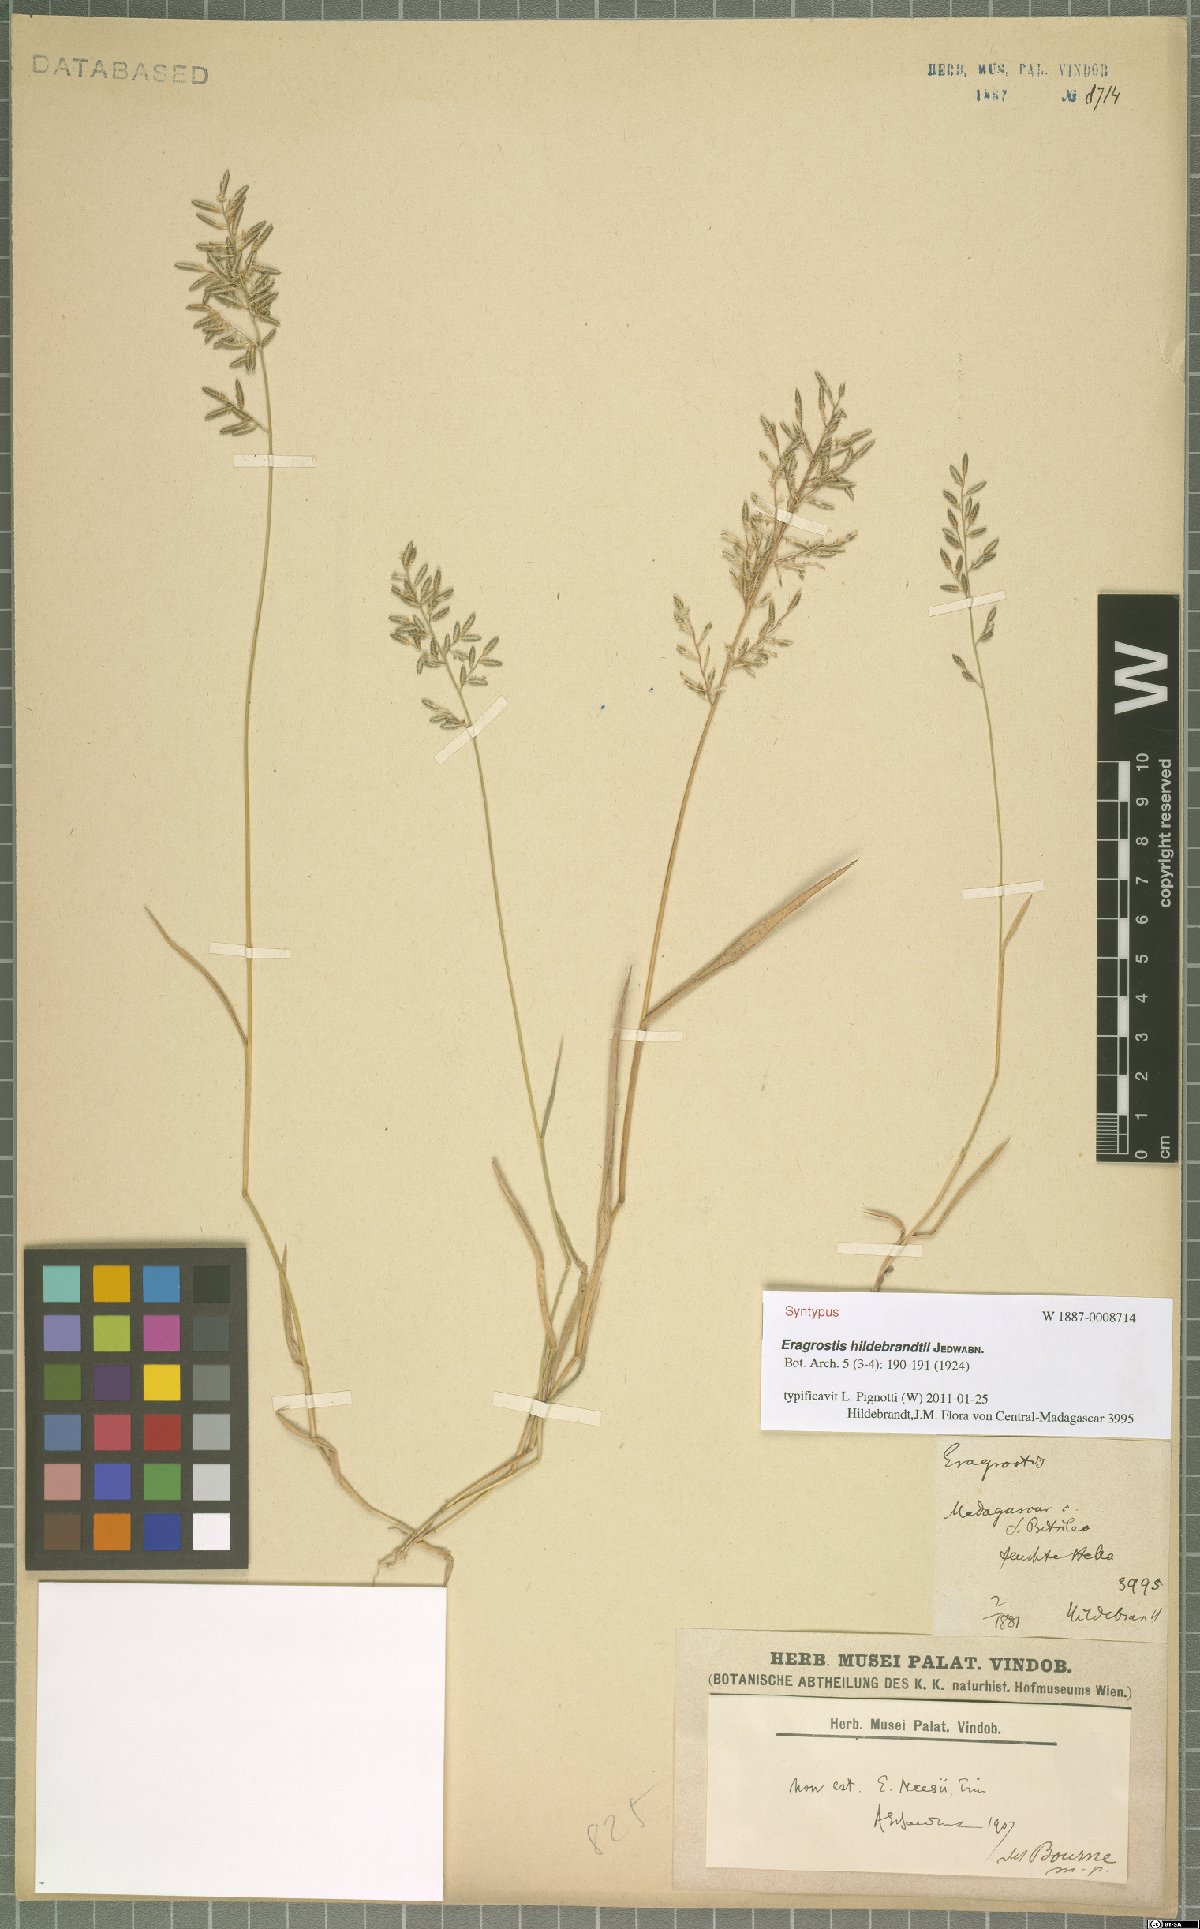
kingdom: Plantae
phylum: Tracheophyta
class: Liliopsida
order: Poales
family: Poaceae
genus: Eragrostis
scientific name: Eragrostis hildebrandtii
